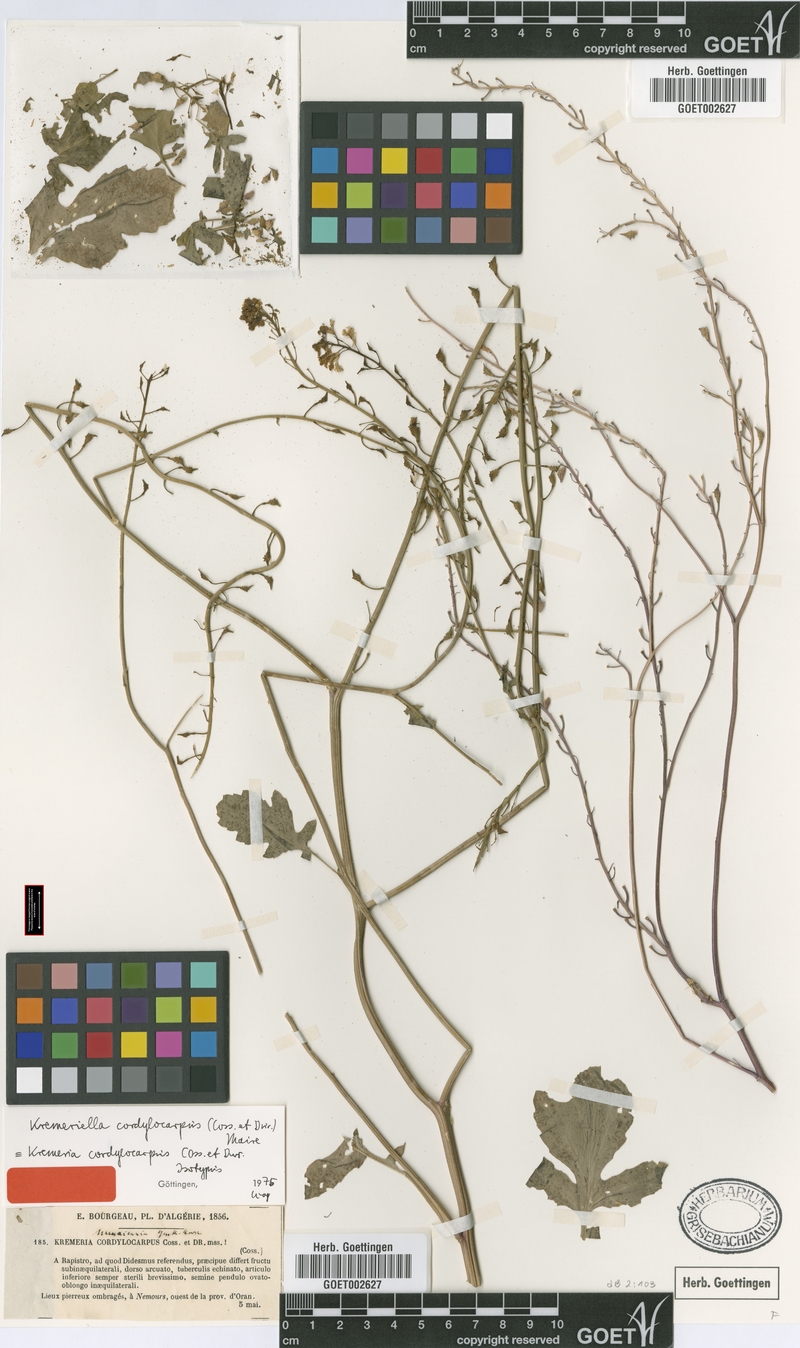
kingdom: Plantae
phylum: Tracheophyta
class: Magnoliopsida
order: Brassicales
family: Brassicaceae
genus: Kremeriella
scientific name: Kremeriella cordylocarpus
